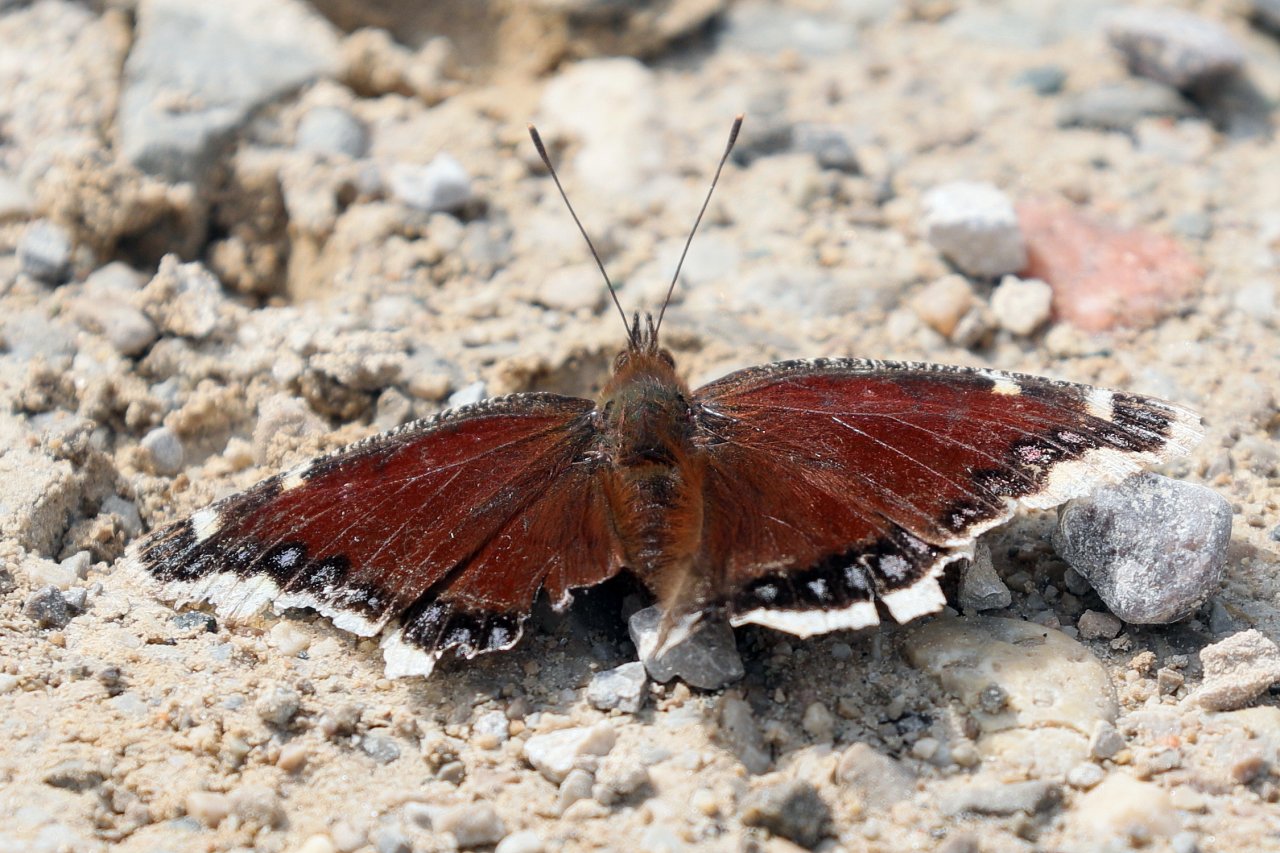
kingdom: Animalia
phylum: Arthropoda
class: Insecta
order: Lepidoptera
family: Nymphalidae
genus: Nymphalis
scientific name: Nymphalis antiopa
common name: Mourning Cloak
